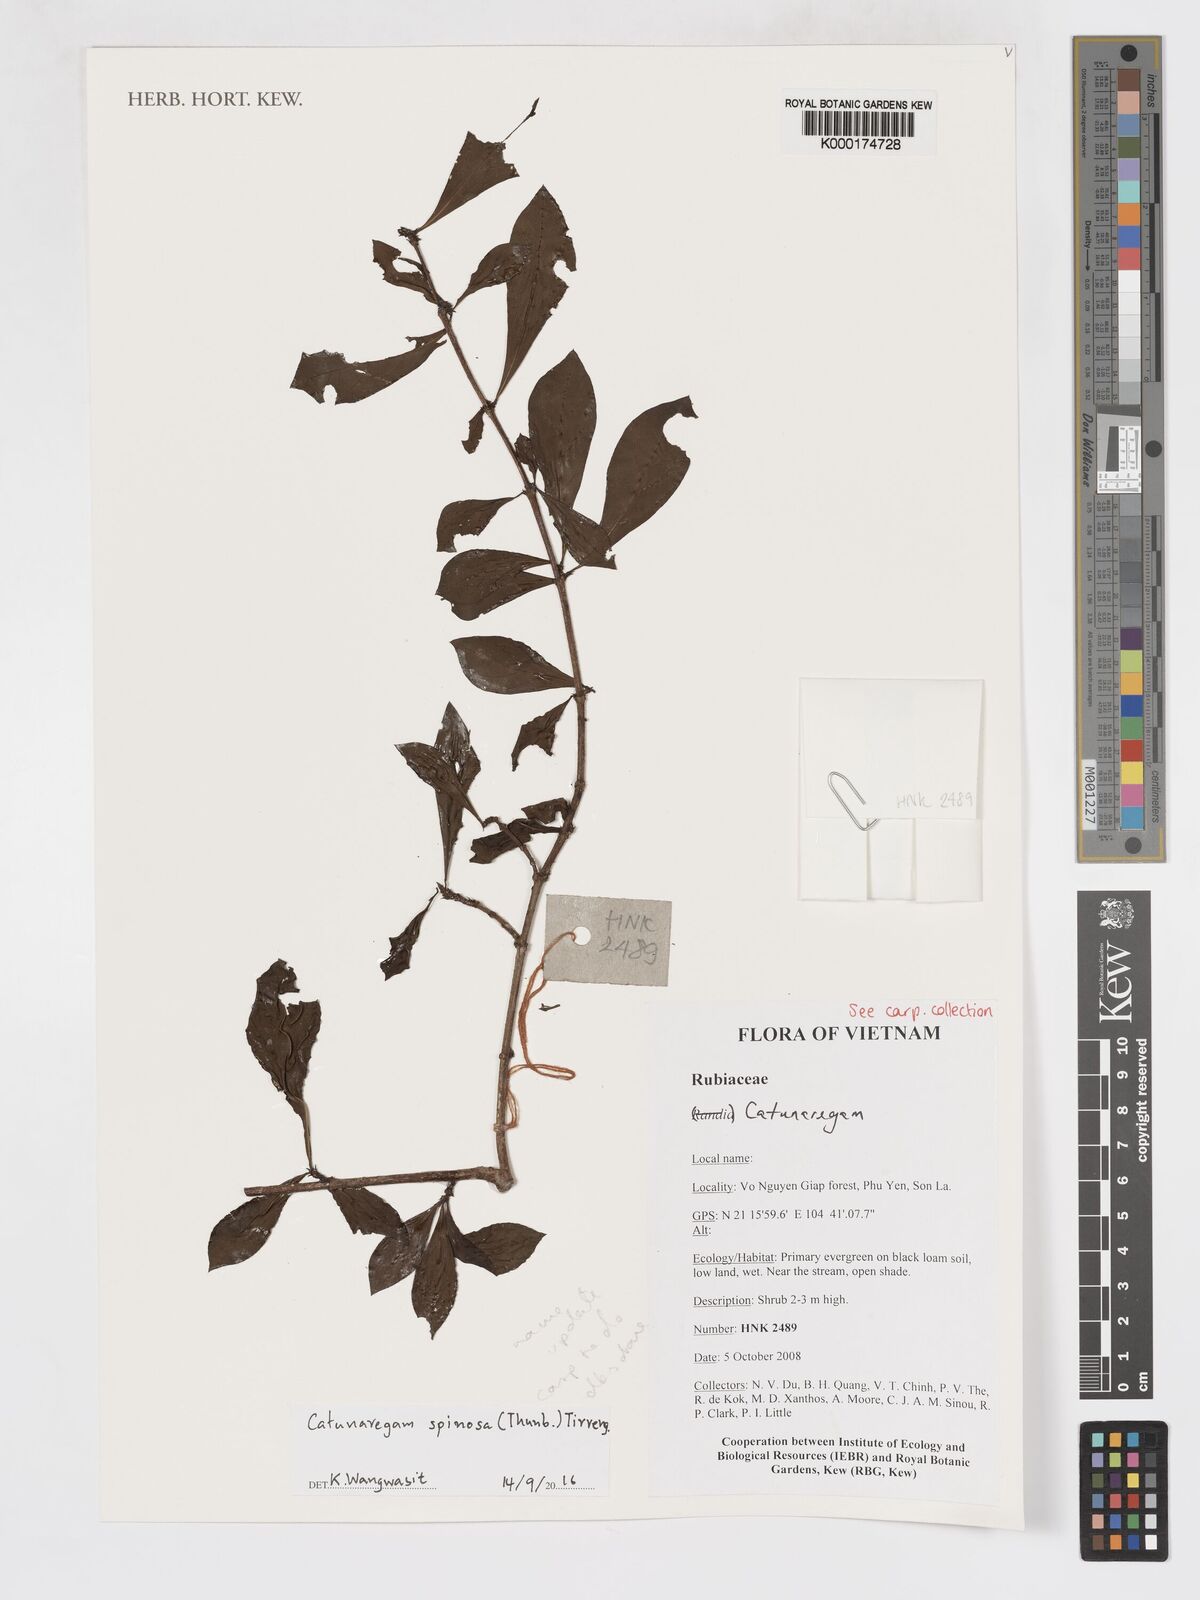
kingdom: Plantae
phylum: Tracheophyta
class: Magnoliopsida
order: Gentianales
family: Rubiaceae
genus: Catunaregam
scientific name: Catunaregam spinosa
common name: Emetic-nut
